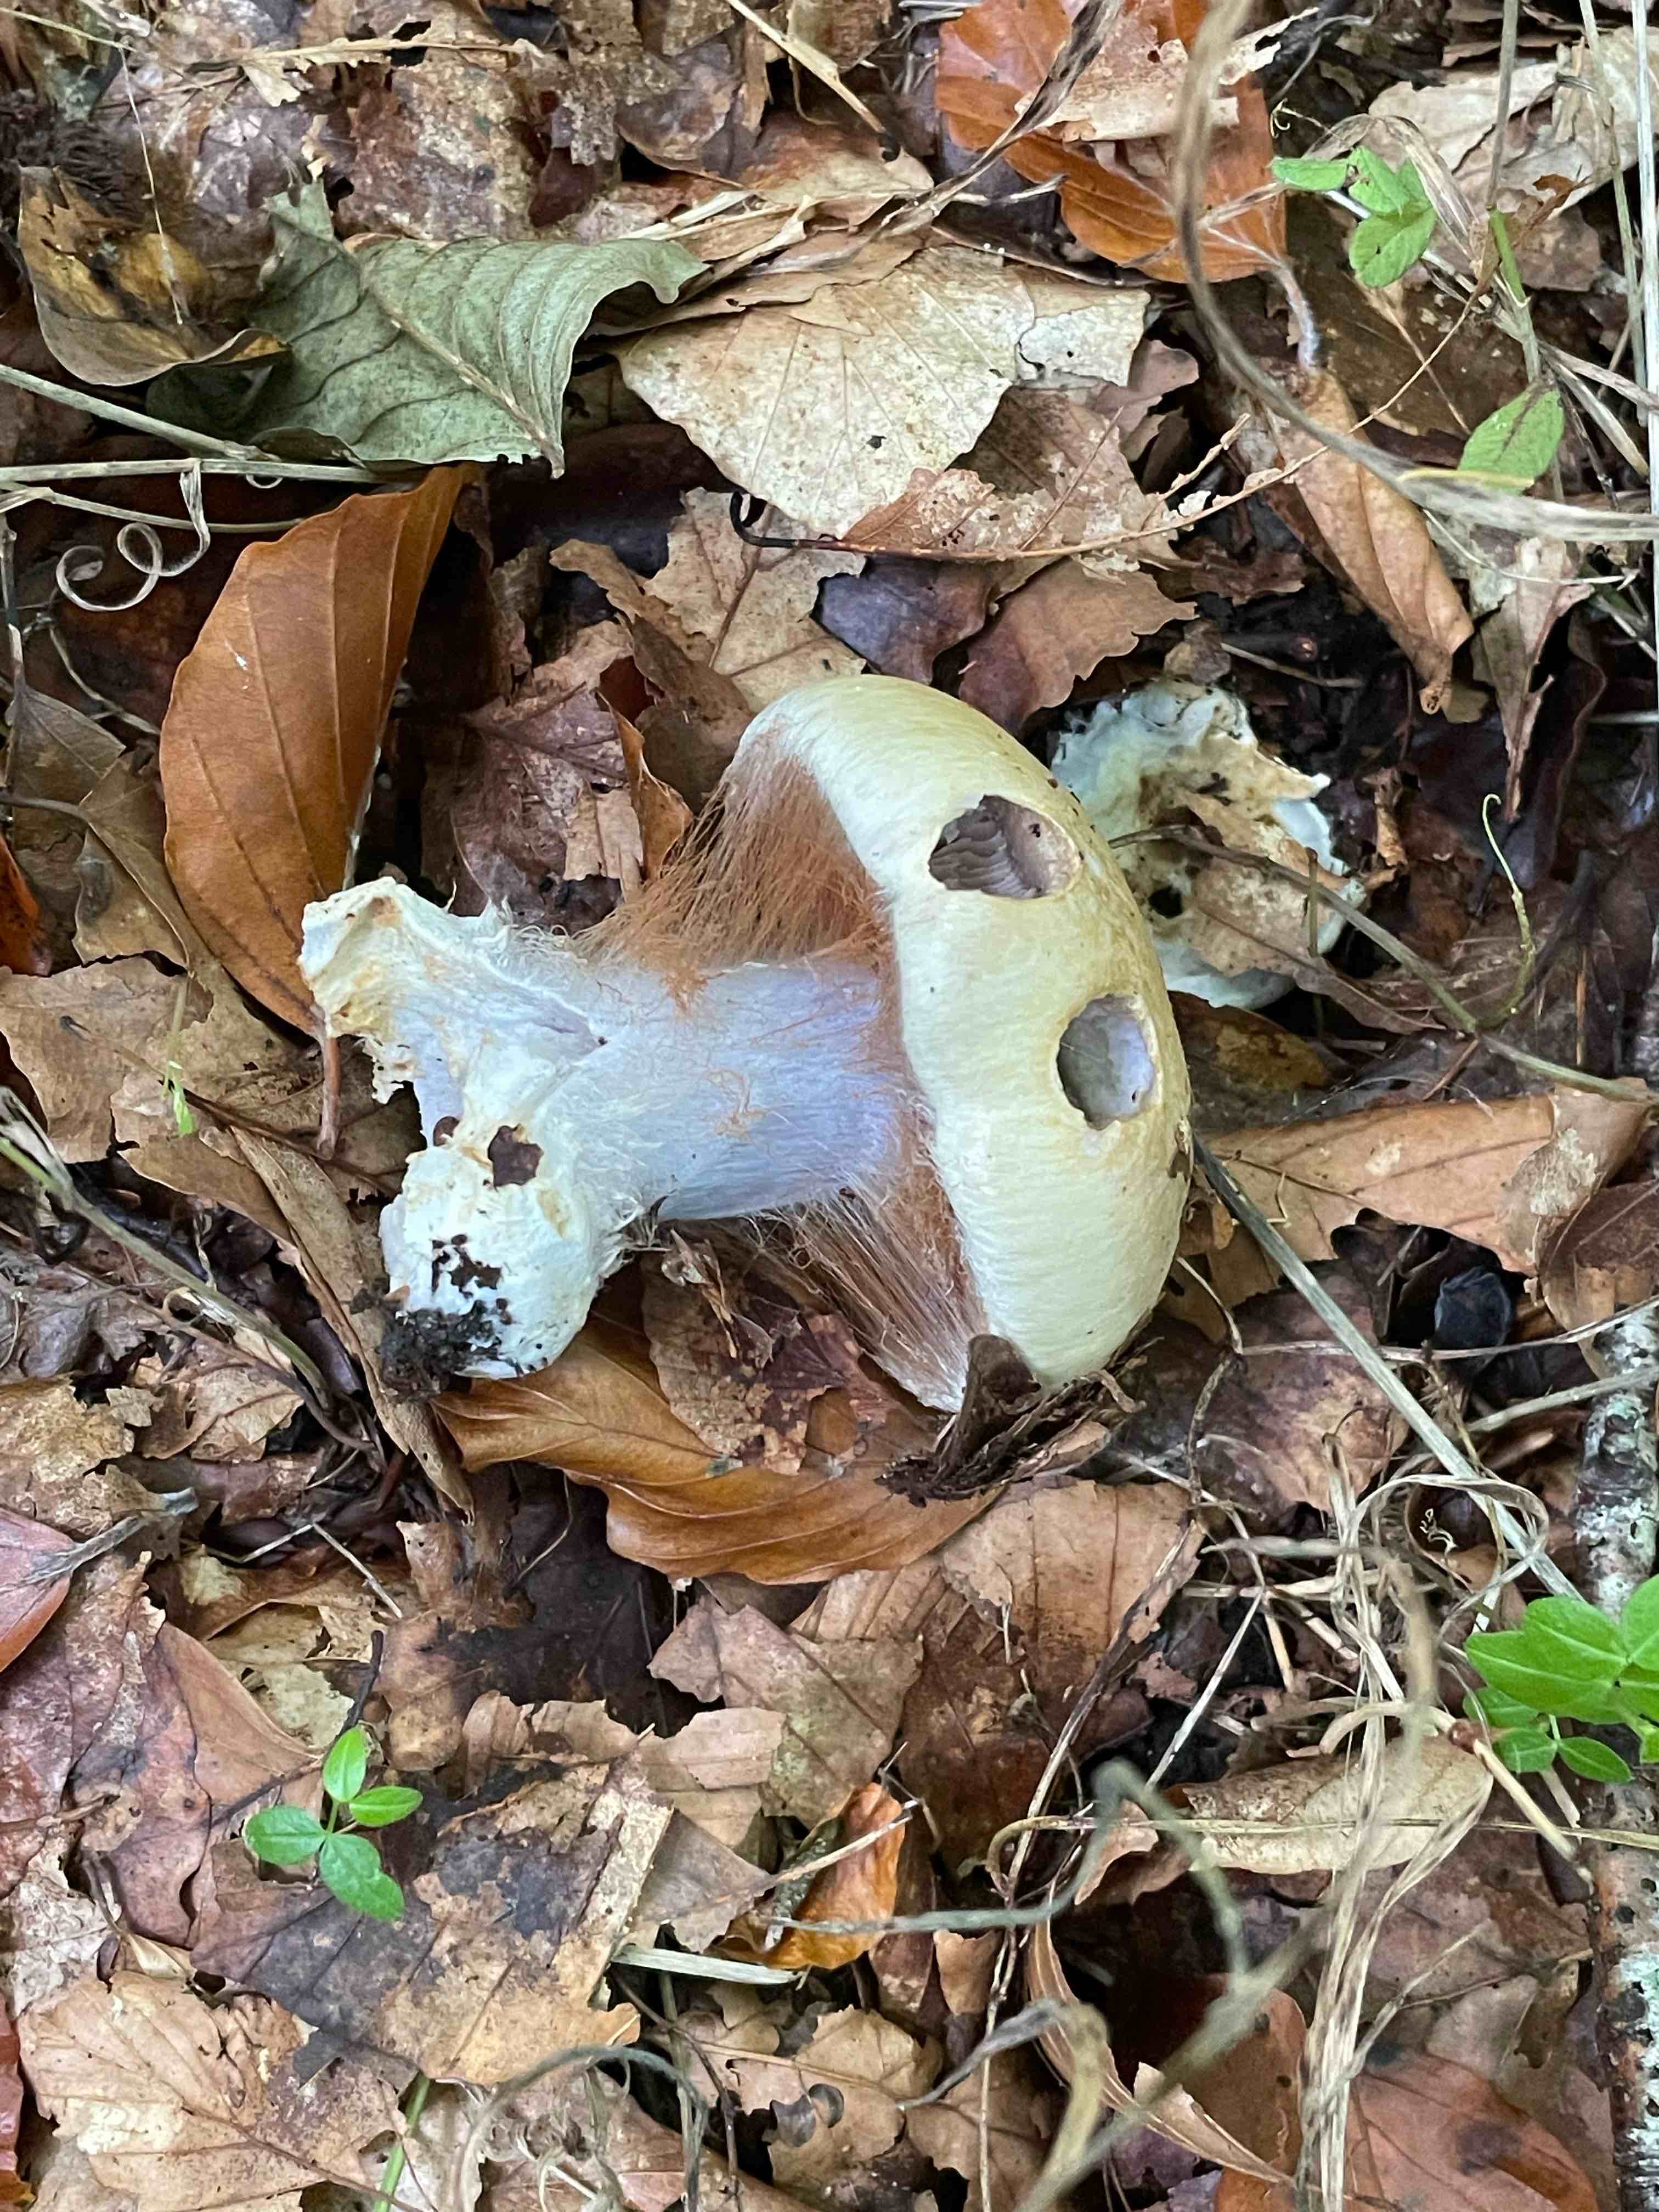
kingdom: Fungi
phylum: Basidiomycota
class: Agaricomycetes
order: Agaricales
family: Cortinariaceae
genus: Cortinarius
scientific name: Cortinarius anserinus
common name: bøge-slørhat
